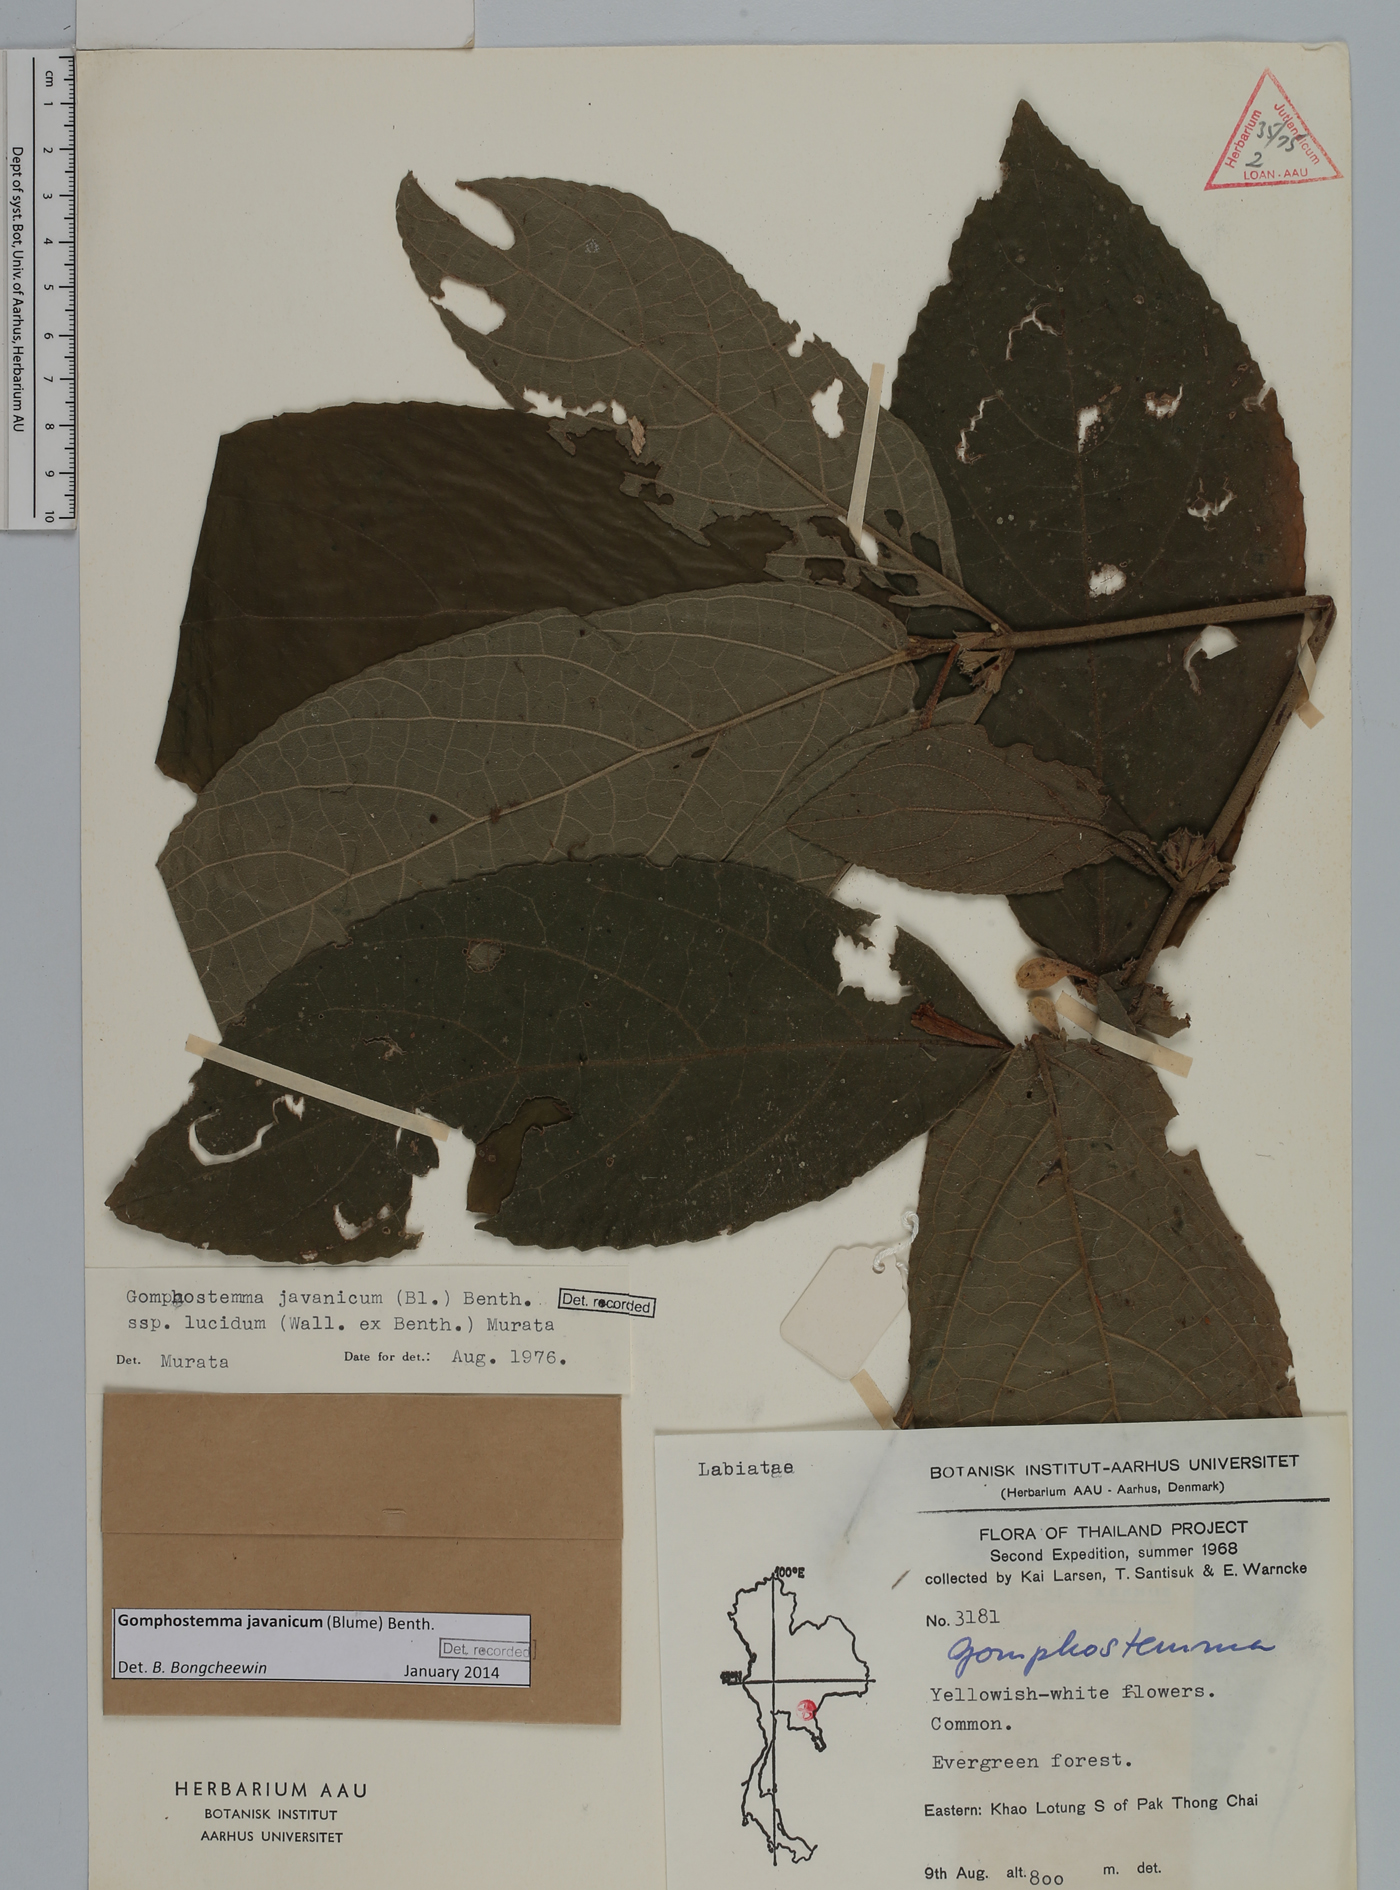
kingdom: Plantae
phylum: Tracheophyta
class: Magnoliopsida
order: Lamiales
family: Lamiaceae
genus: Gomphostemma
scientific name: Gomphostemma javanicum
